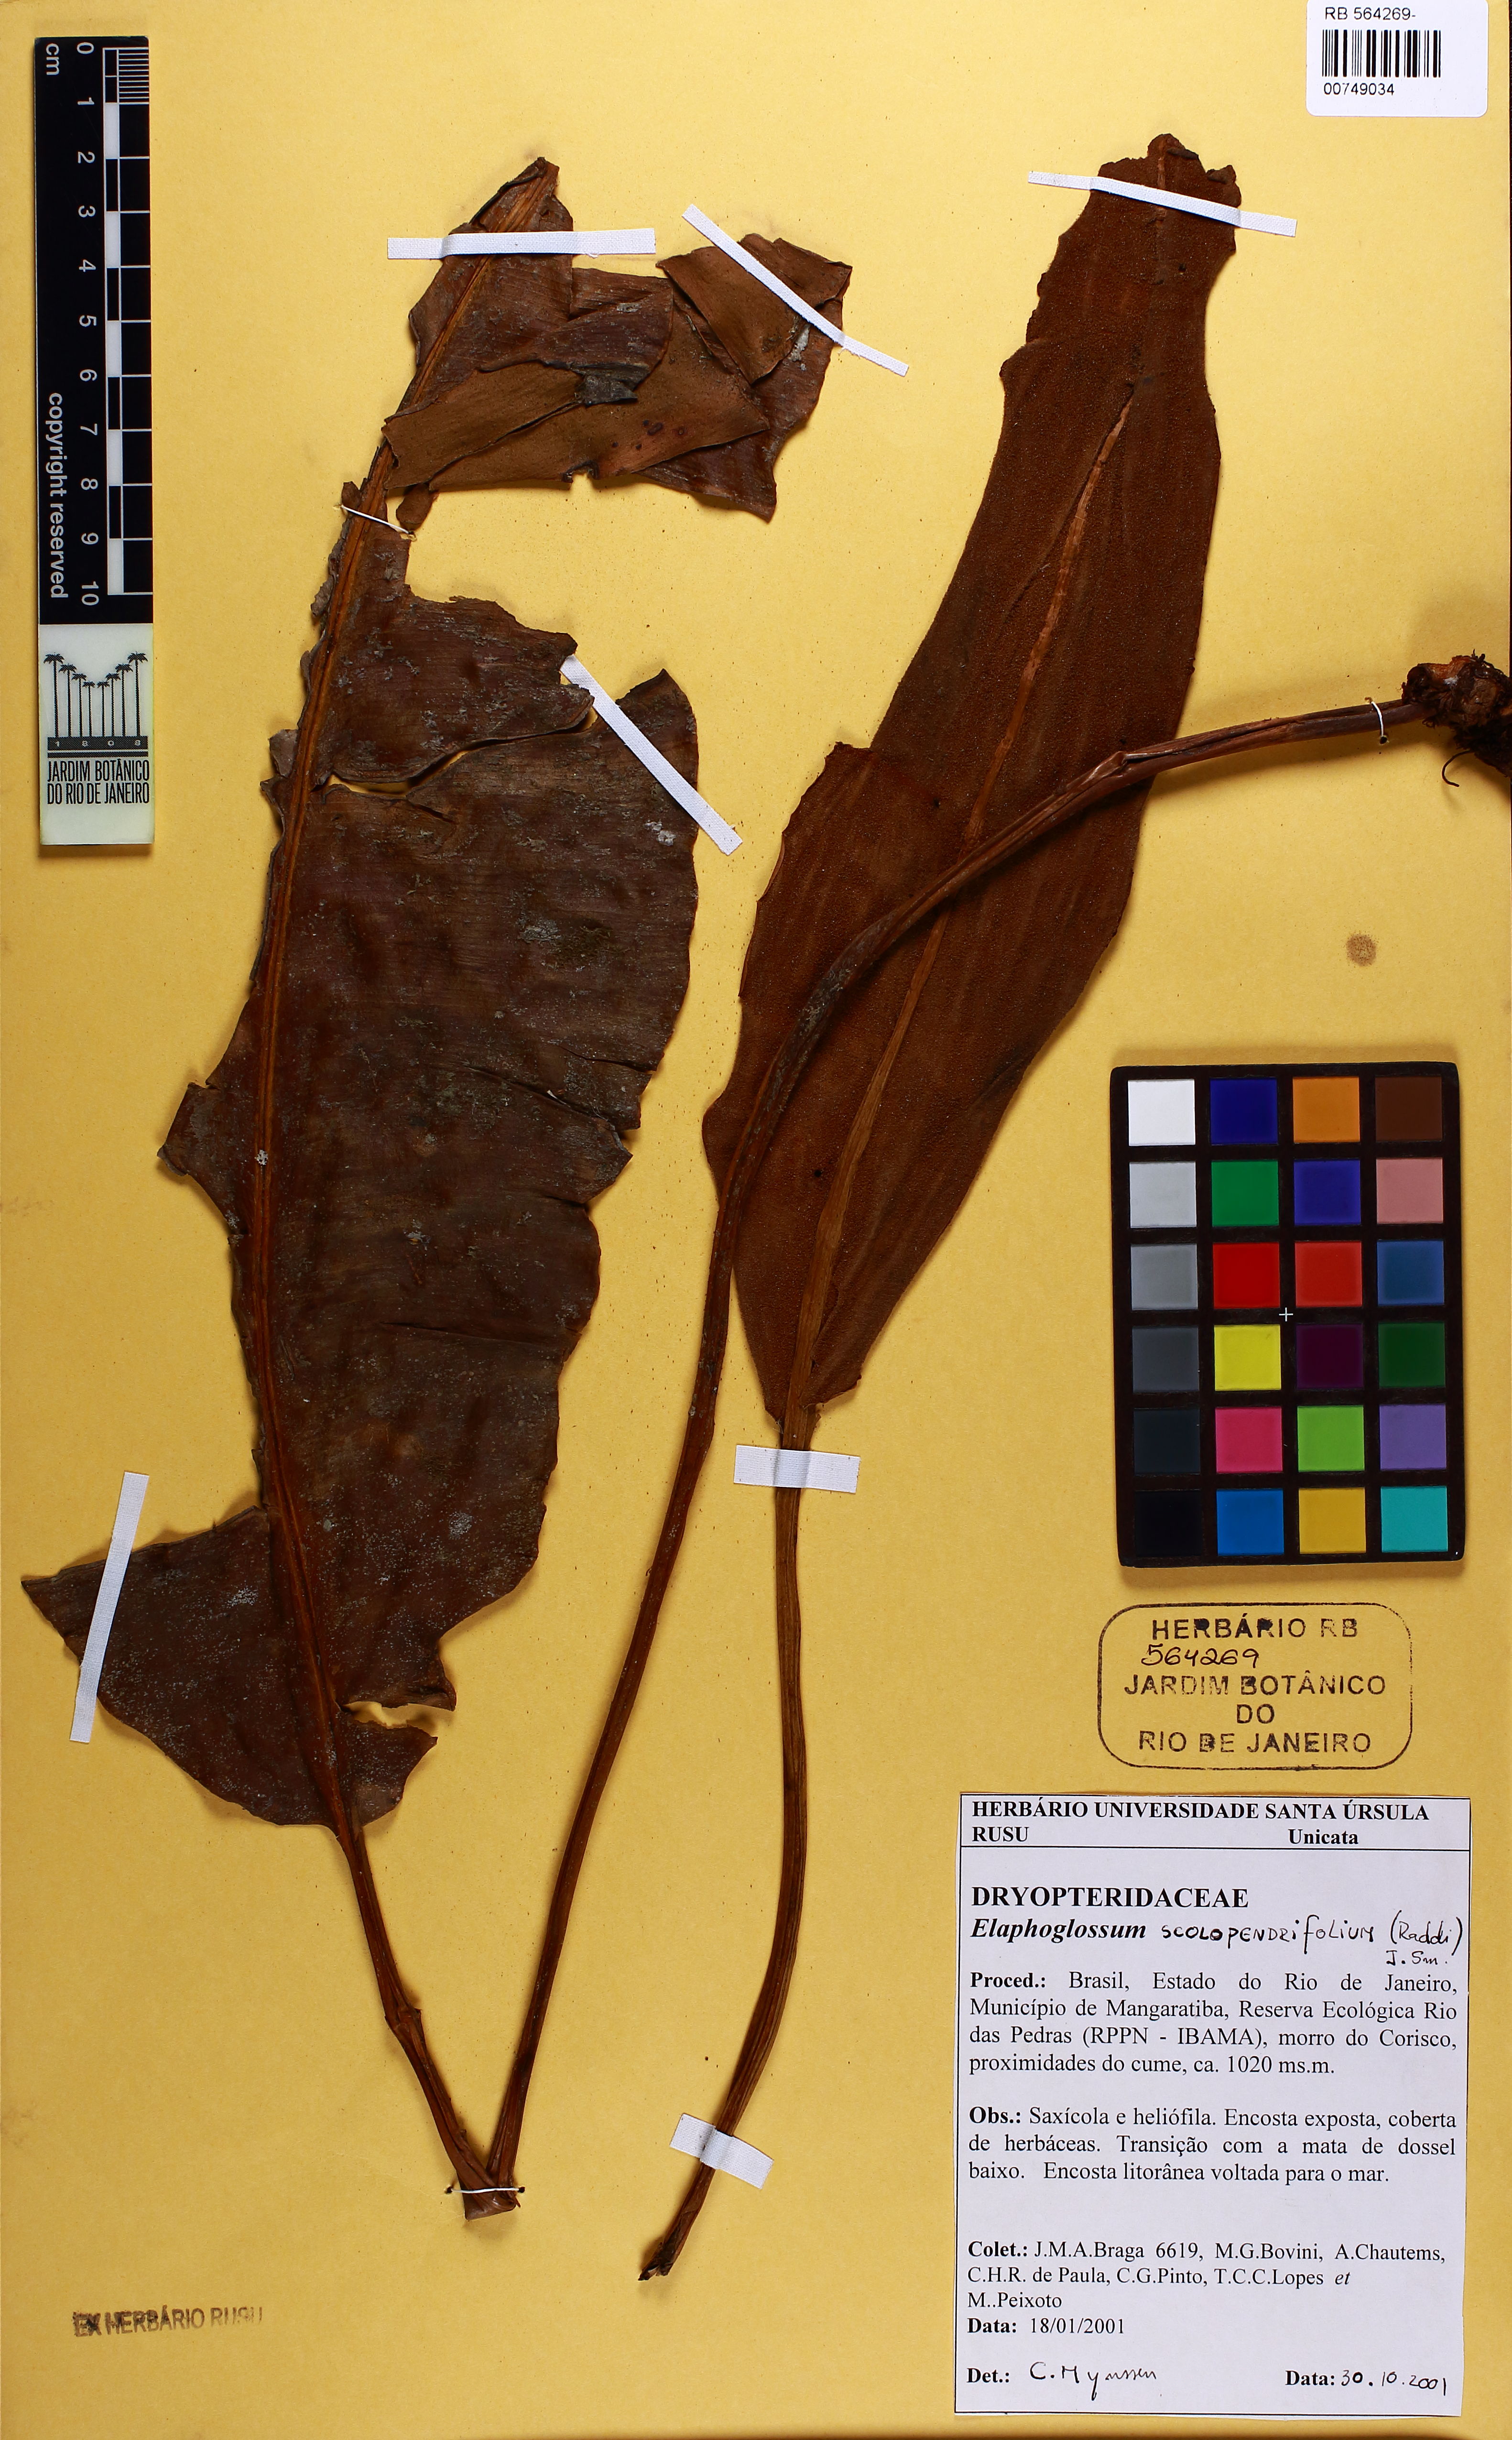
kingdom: Plantae
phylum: Tracheophyta
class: Polypodiopsida
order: Polypodiales
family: Dryopteridaceae
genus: Elaphoglossum
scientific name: Elaphoglossum scolopendrifolium
